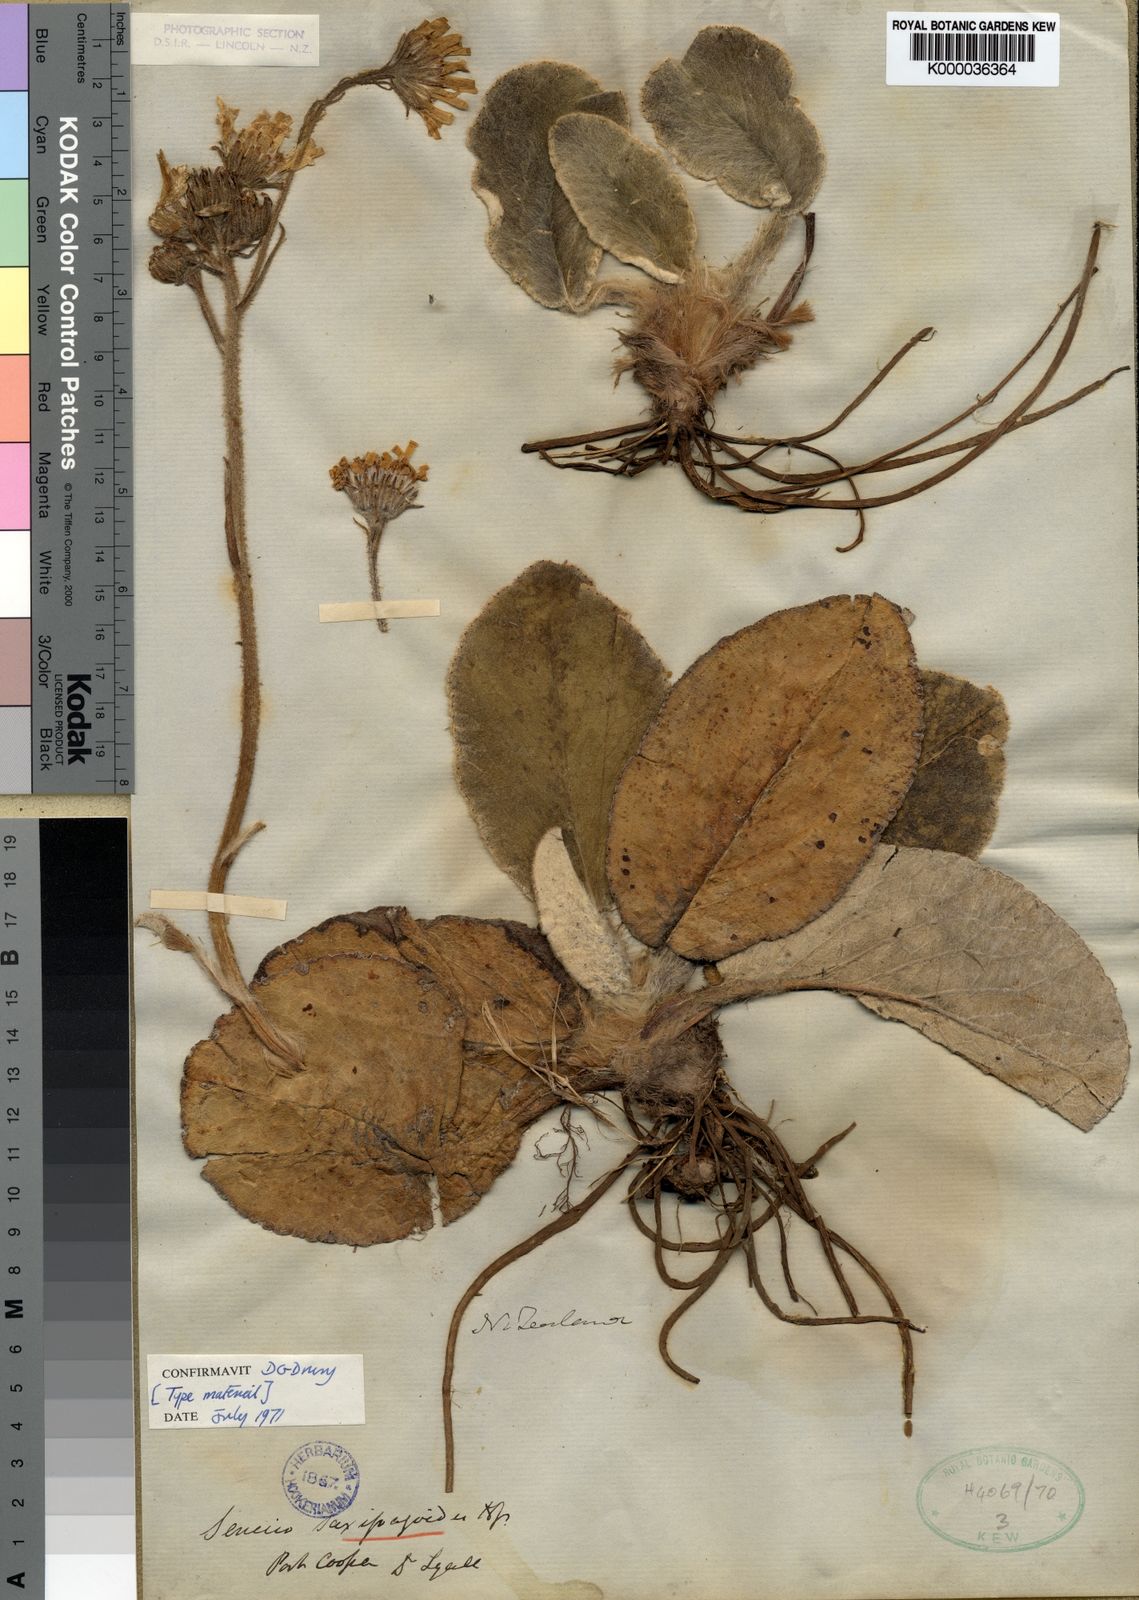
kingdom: Plantae
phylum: Tracheophyta
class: Magnoliopsida
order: Asterales
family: Asteraceae
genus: Brachyglottis
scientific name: Brachyglottis lagopus
